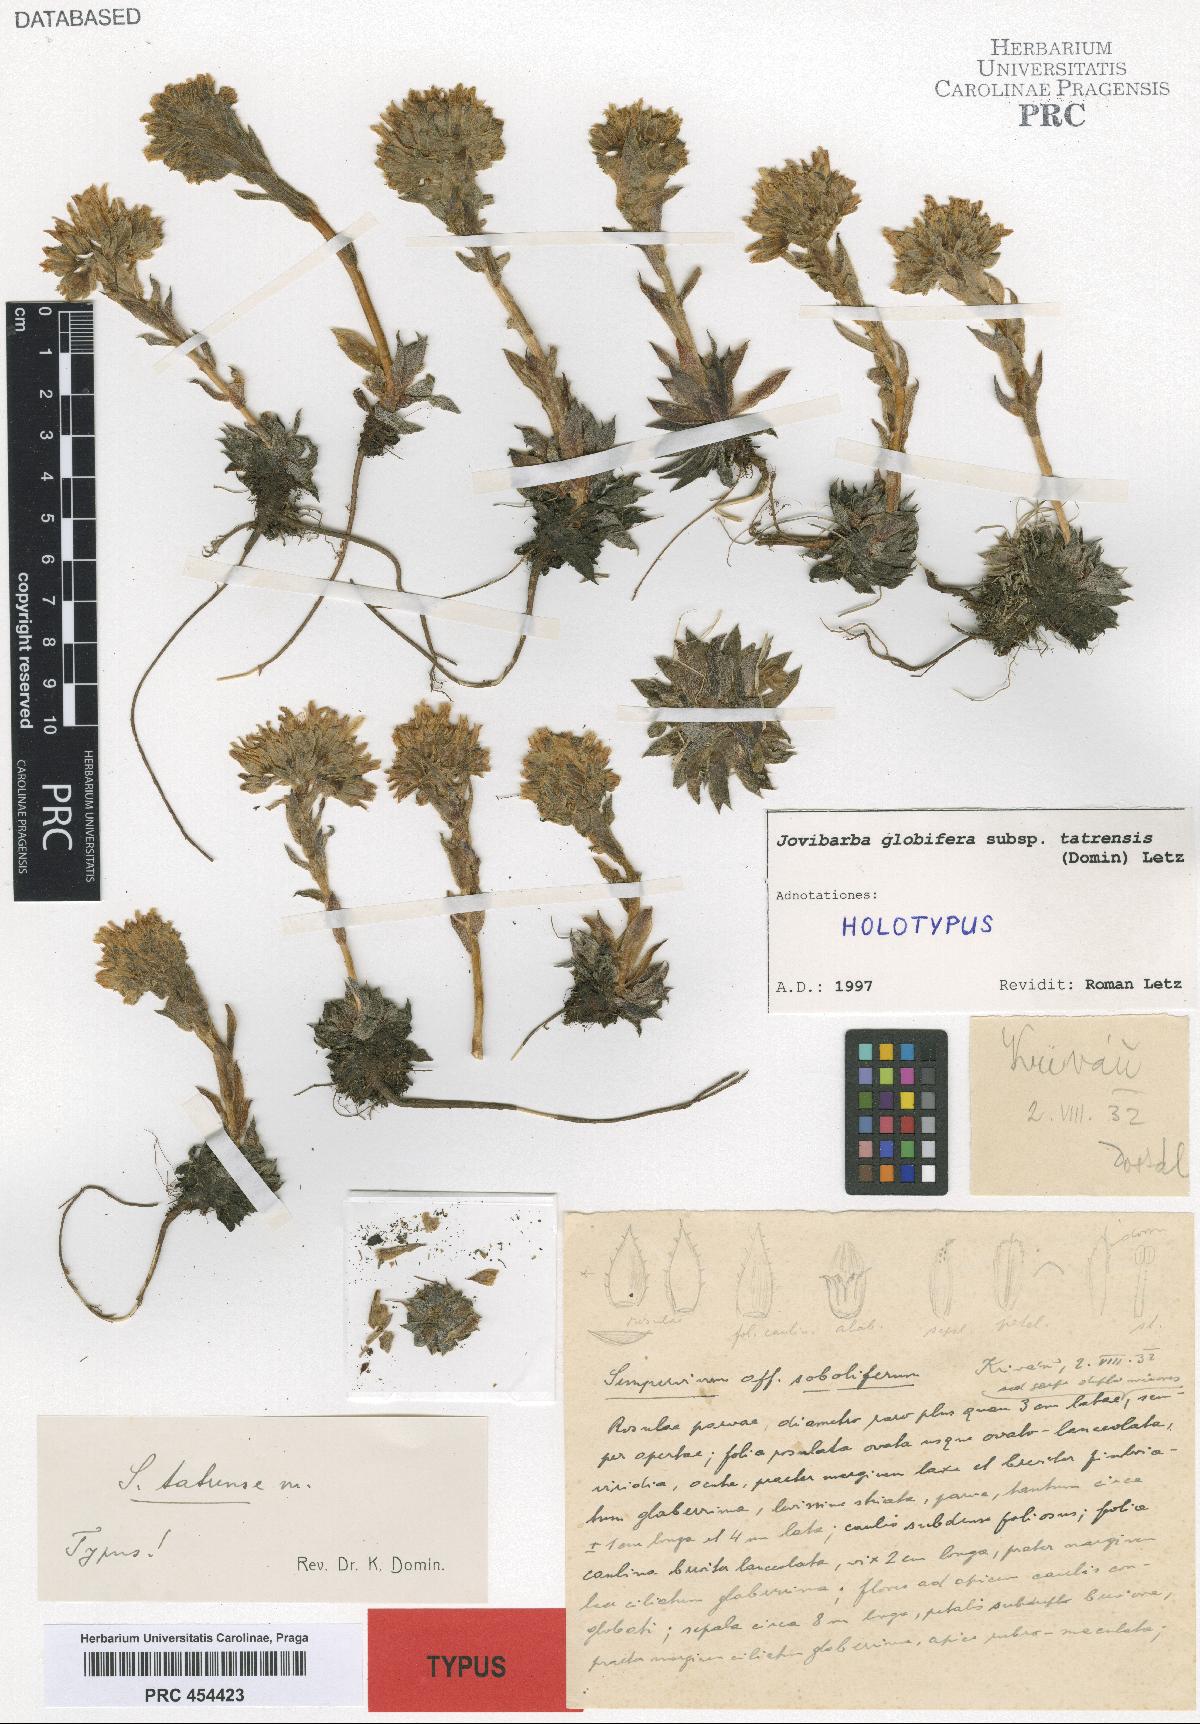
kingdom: Plantae
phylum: Tracheophyta
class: Magnoliopsida
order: Saxifragales
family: Crassulaceae
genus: Sempervivum
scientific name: Sempervivum globiferum
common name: Rolling hen-and-chicks
